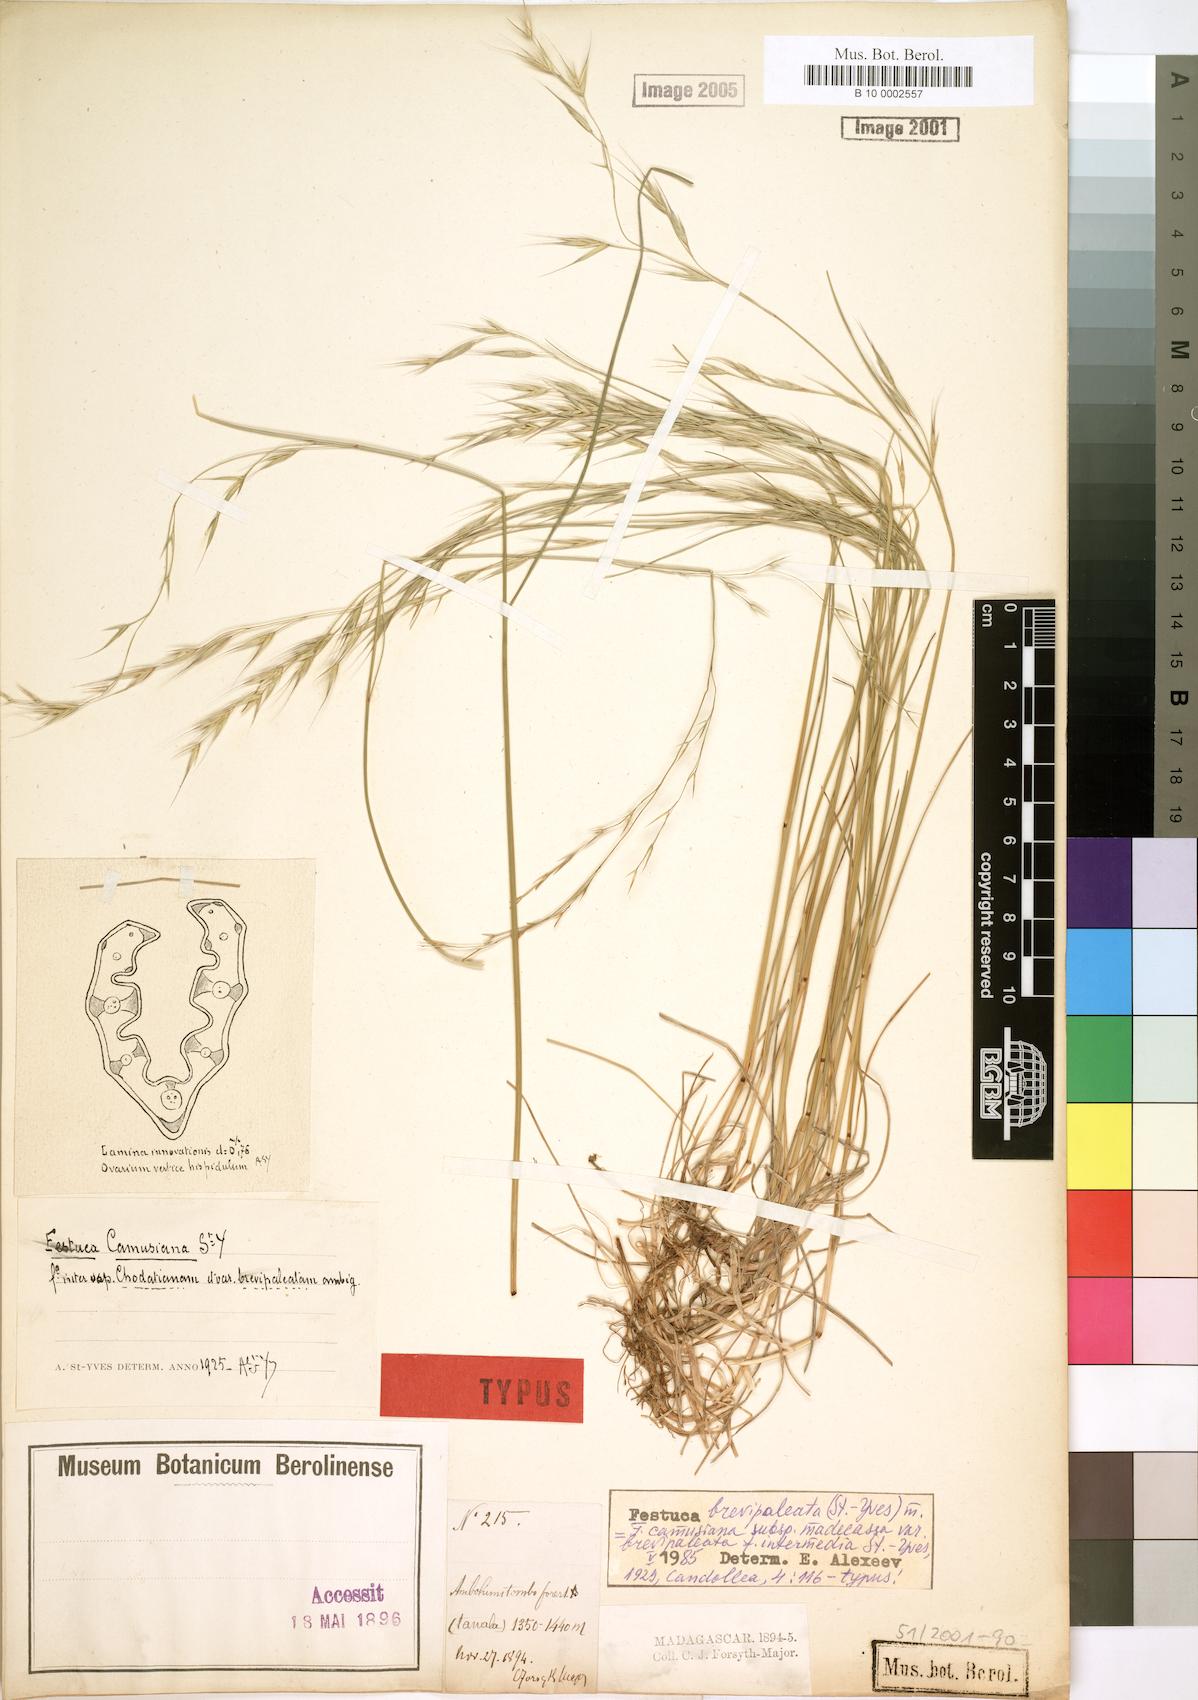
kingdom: Plantae
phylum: Tracheophyta
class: Liliopsida
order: Poales
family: Poaceae
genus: Festuca
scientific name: Festuca brevipaleata
